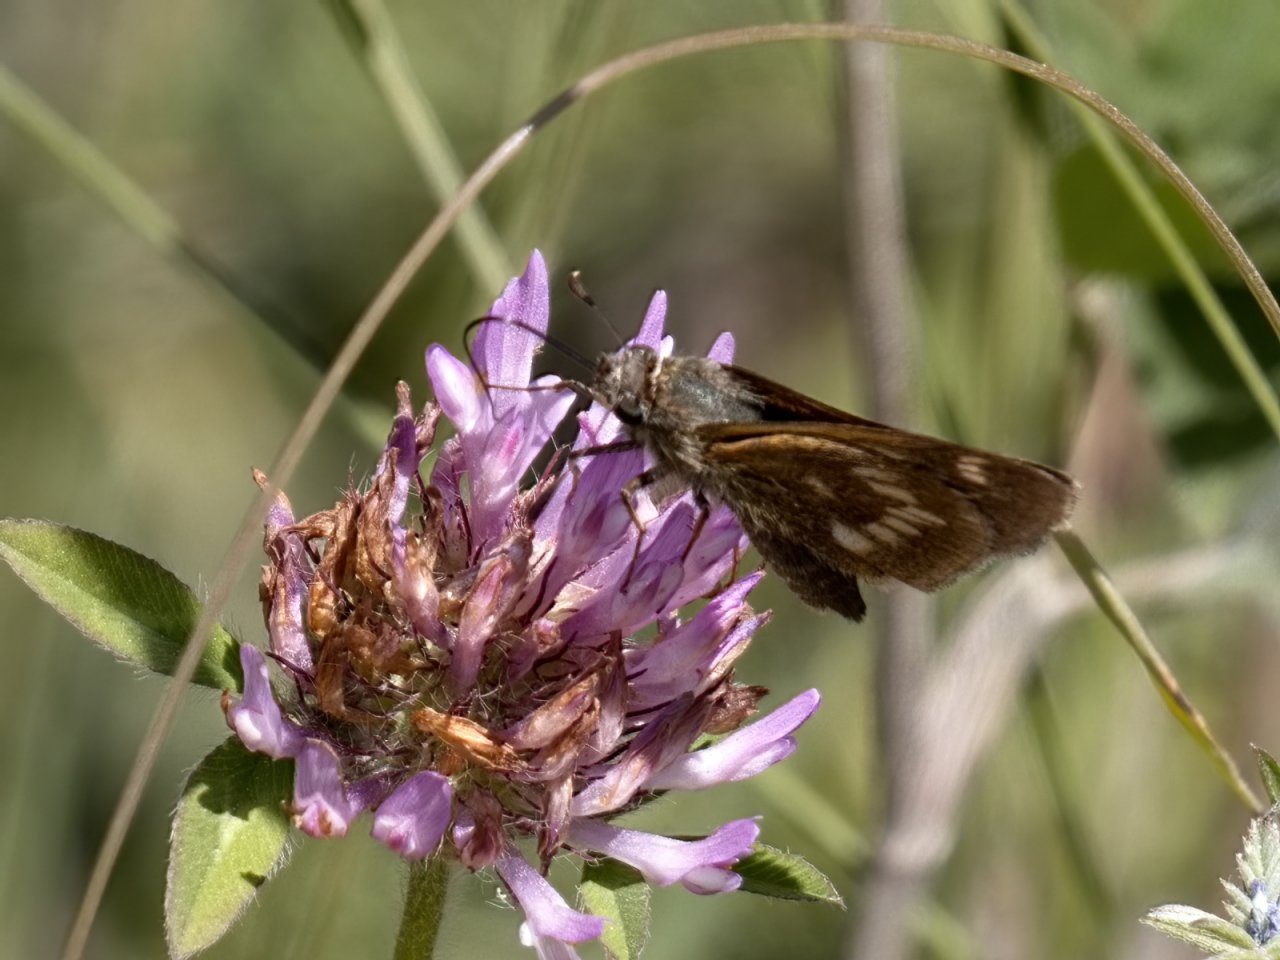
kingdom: Animalia
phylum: Arthropoda
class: Insecta
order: Lepidoptera
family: Hesperiidae
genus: Polites
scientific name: Polites
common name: Long Dash Skipper
